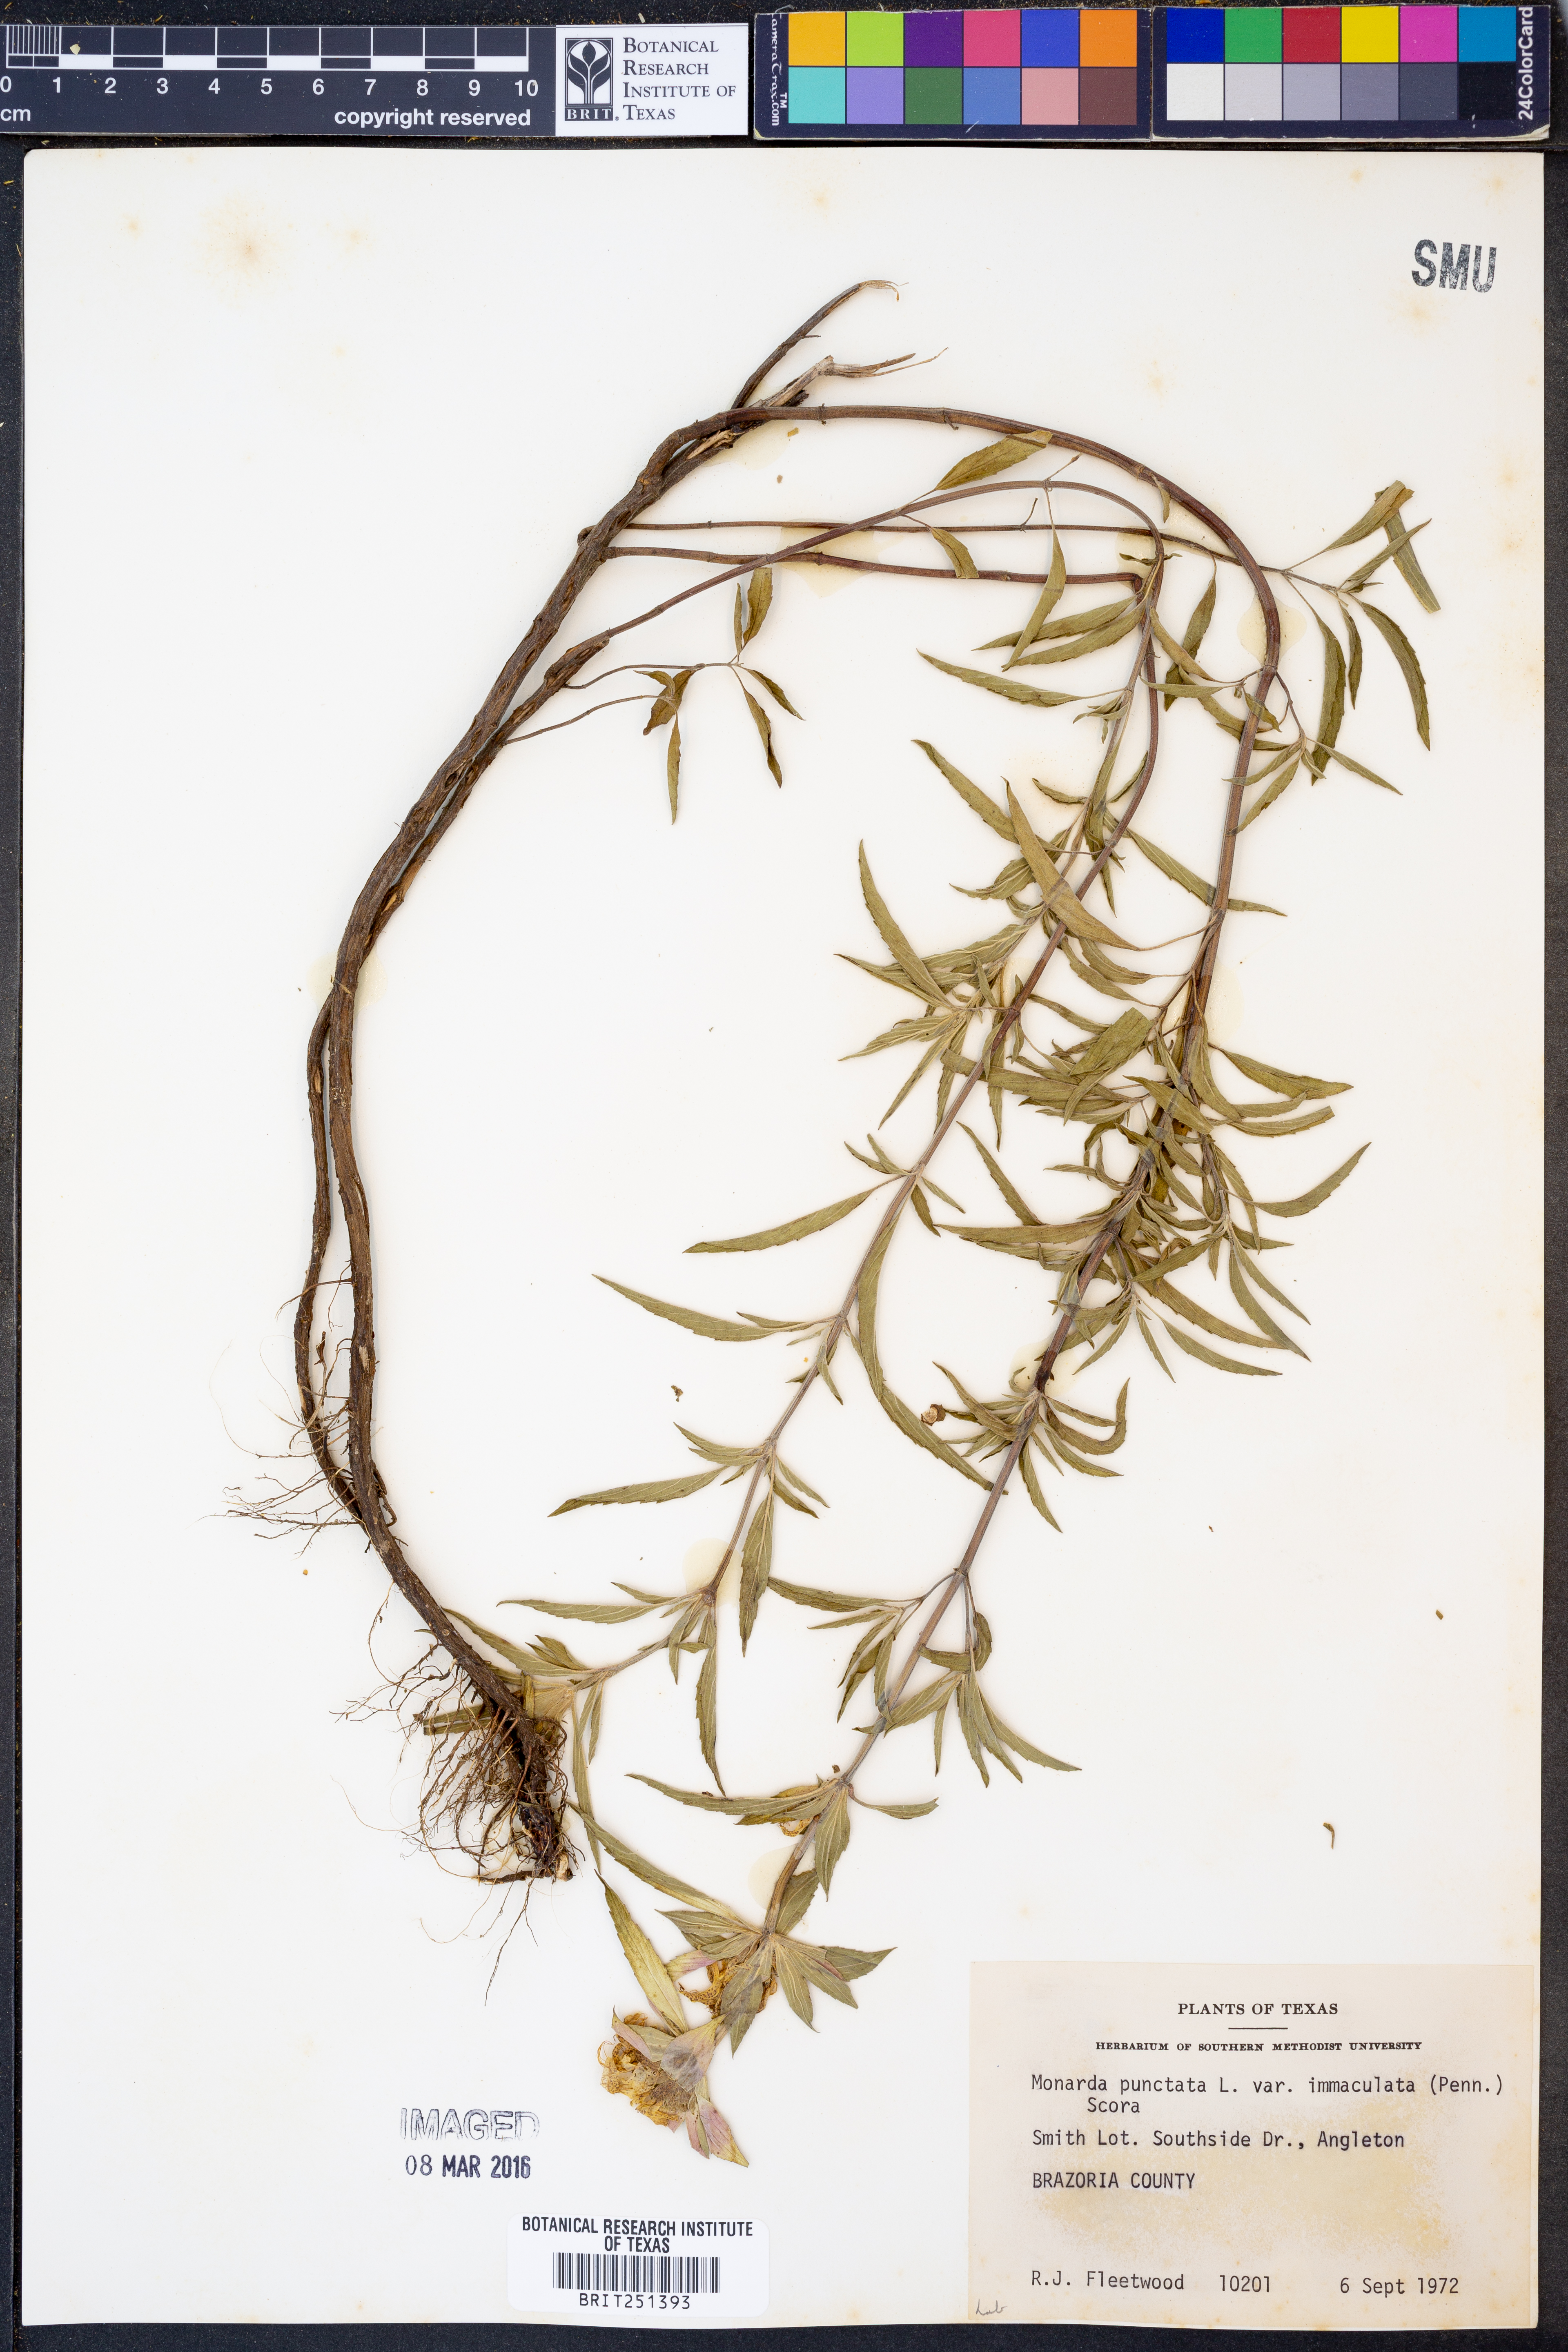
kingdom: Plantae
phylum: Tracheophyta
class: Magnoliopsida
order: Lamiales
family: Lamiaceae
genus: Monarda
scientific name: Monarda punctata
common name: Dotted monarda
